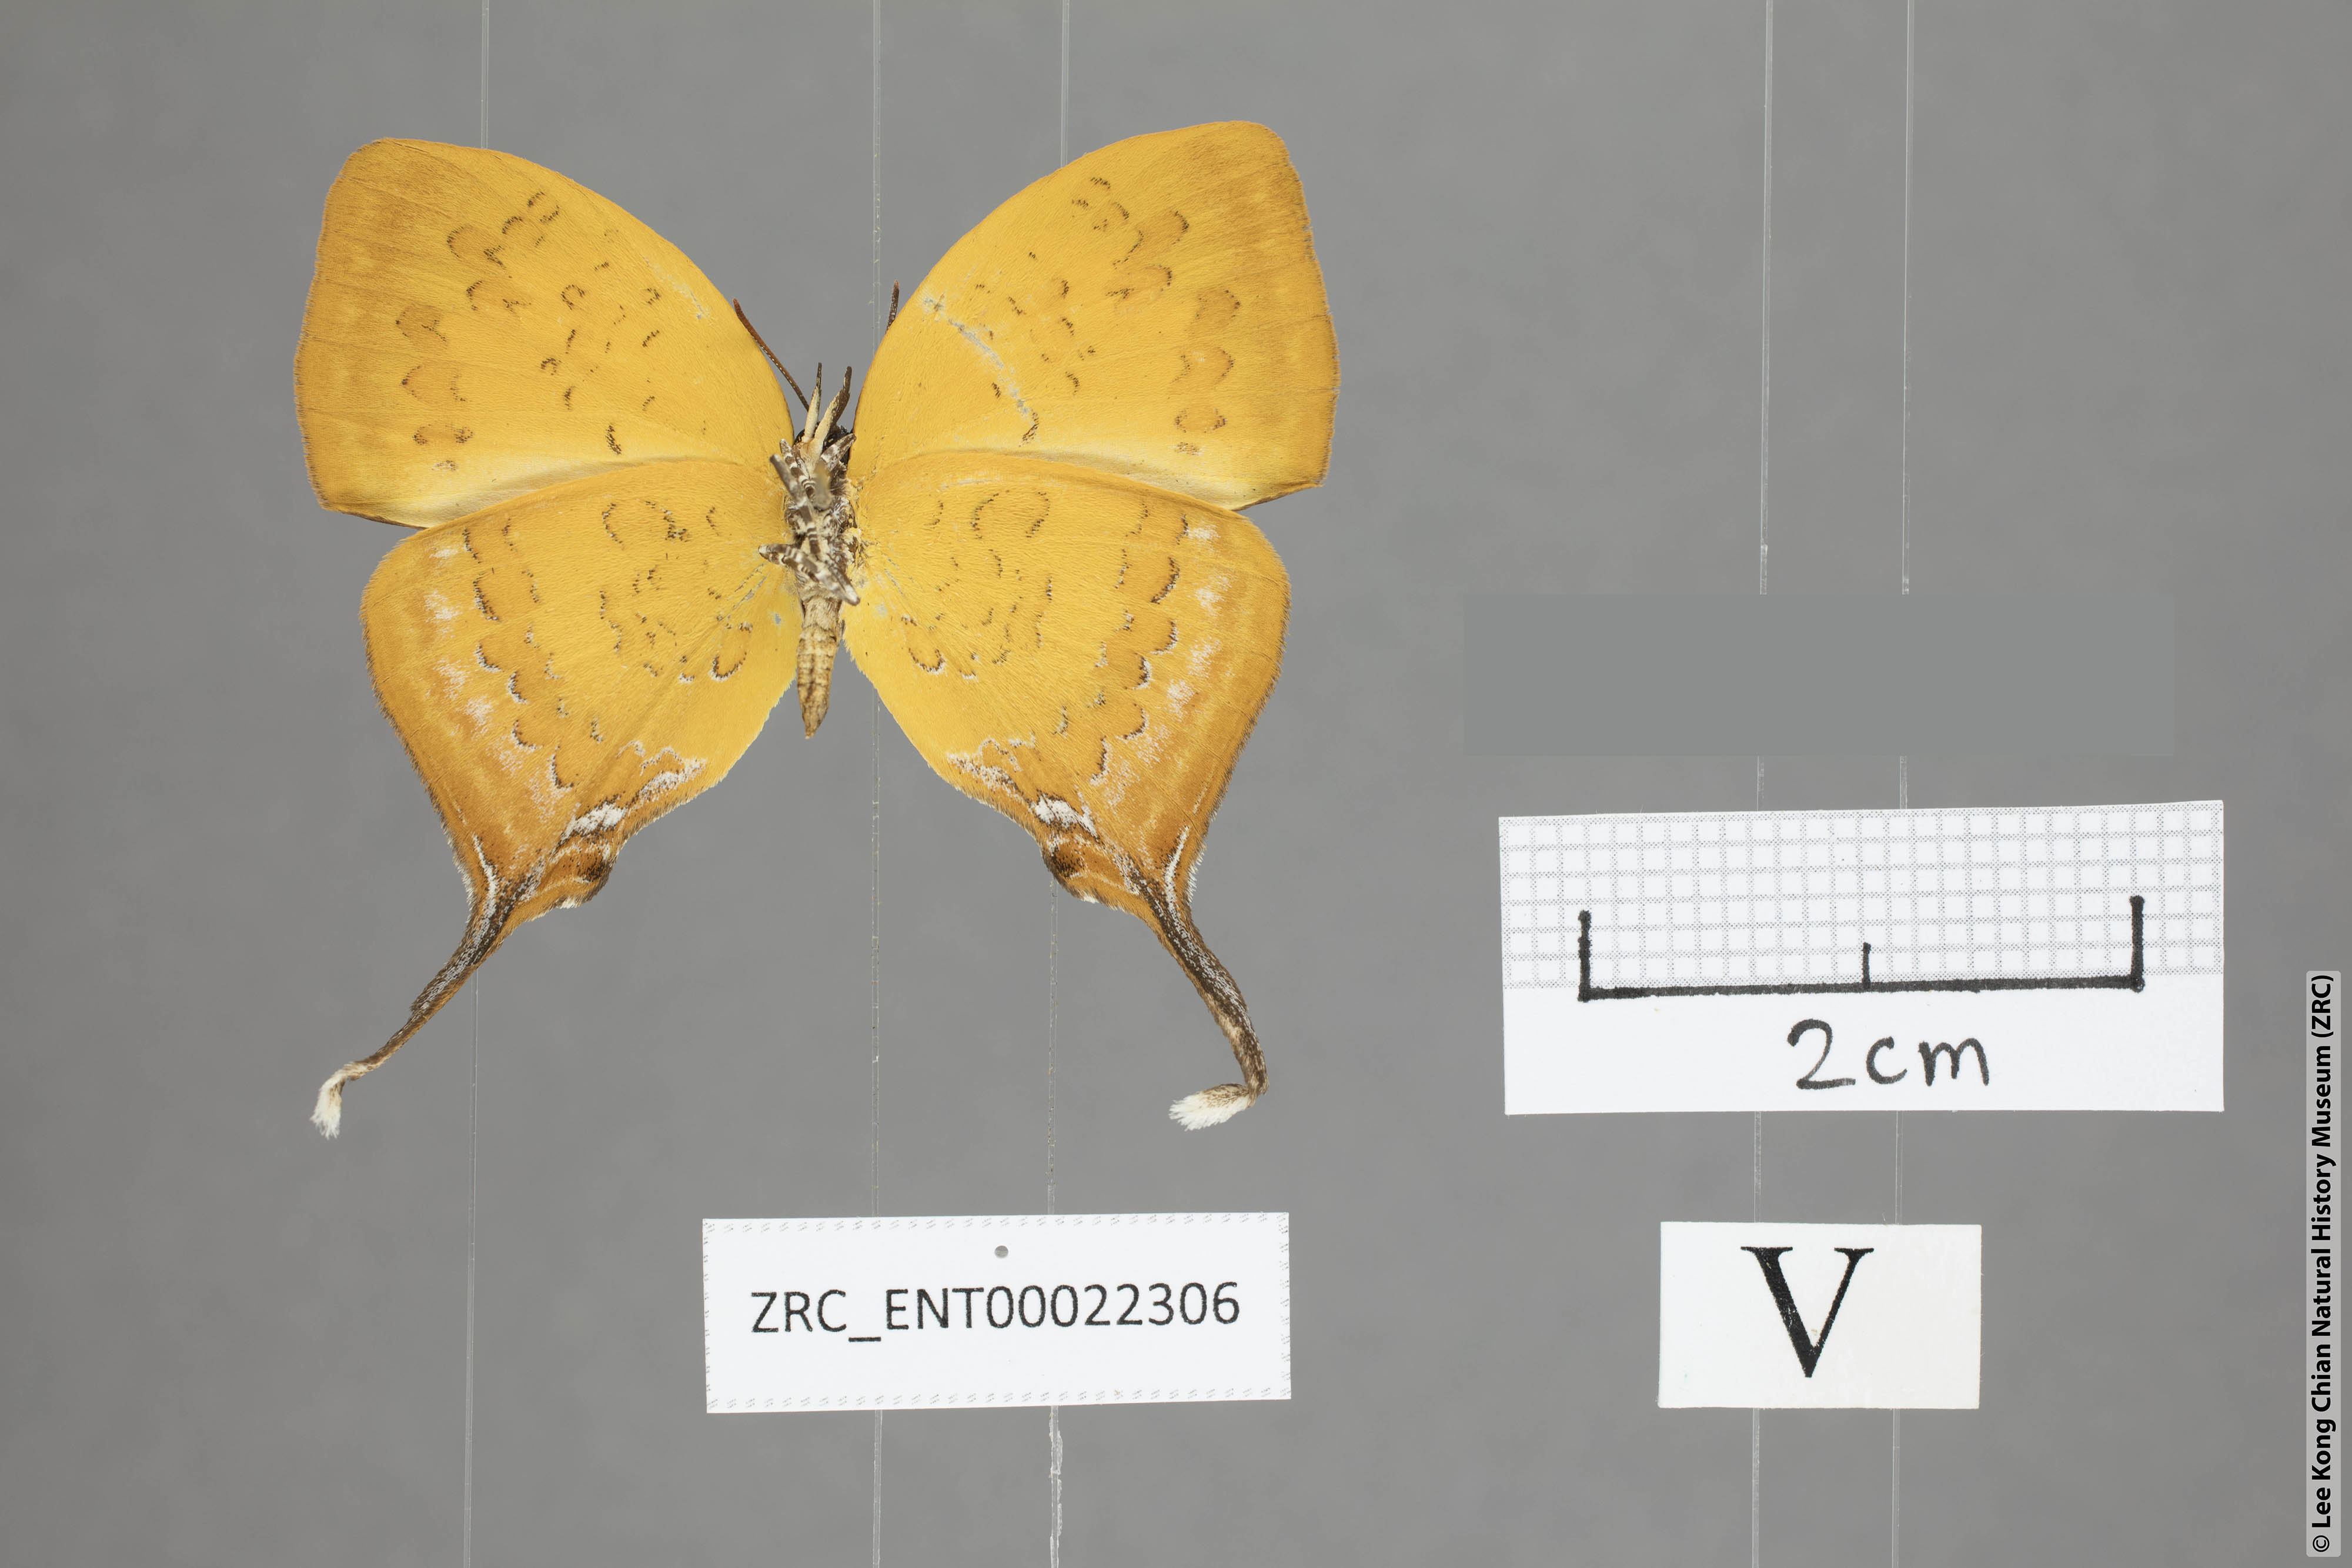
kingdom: Animalia
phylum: Arthropoda
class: Insecta
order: Lepidoptera
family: Lycaenidae
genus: Yasoda
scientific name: Yasoda pitane
